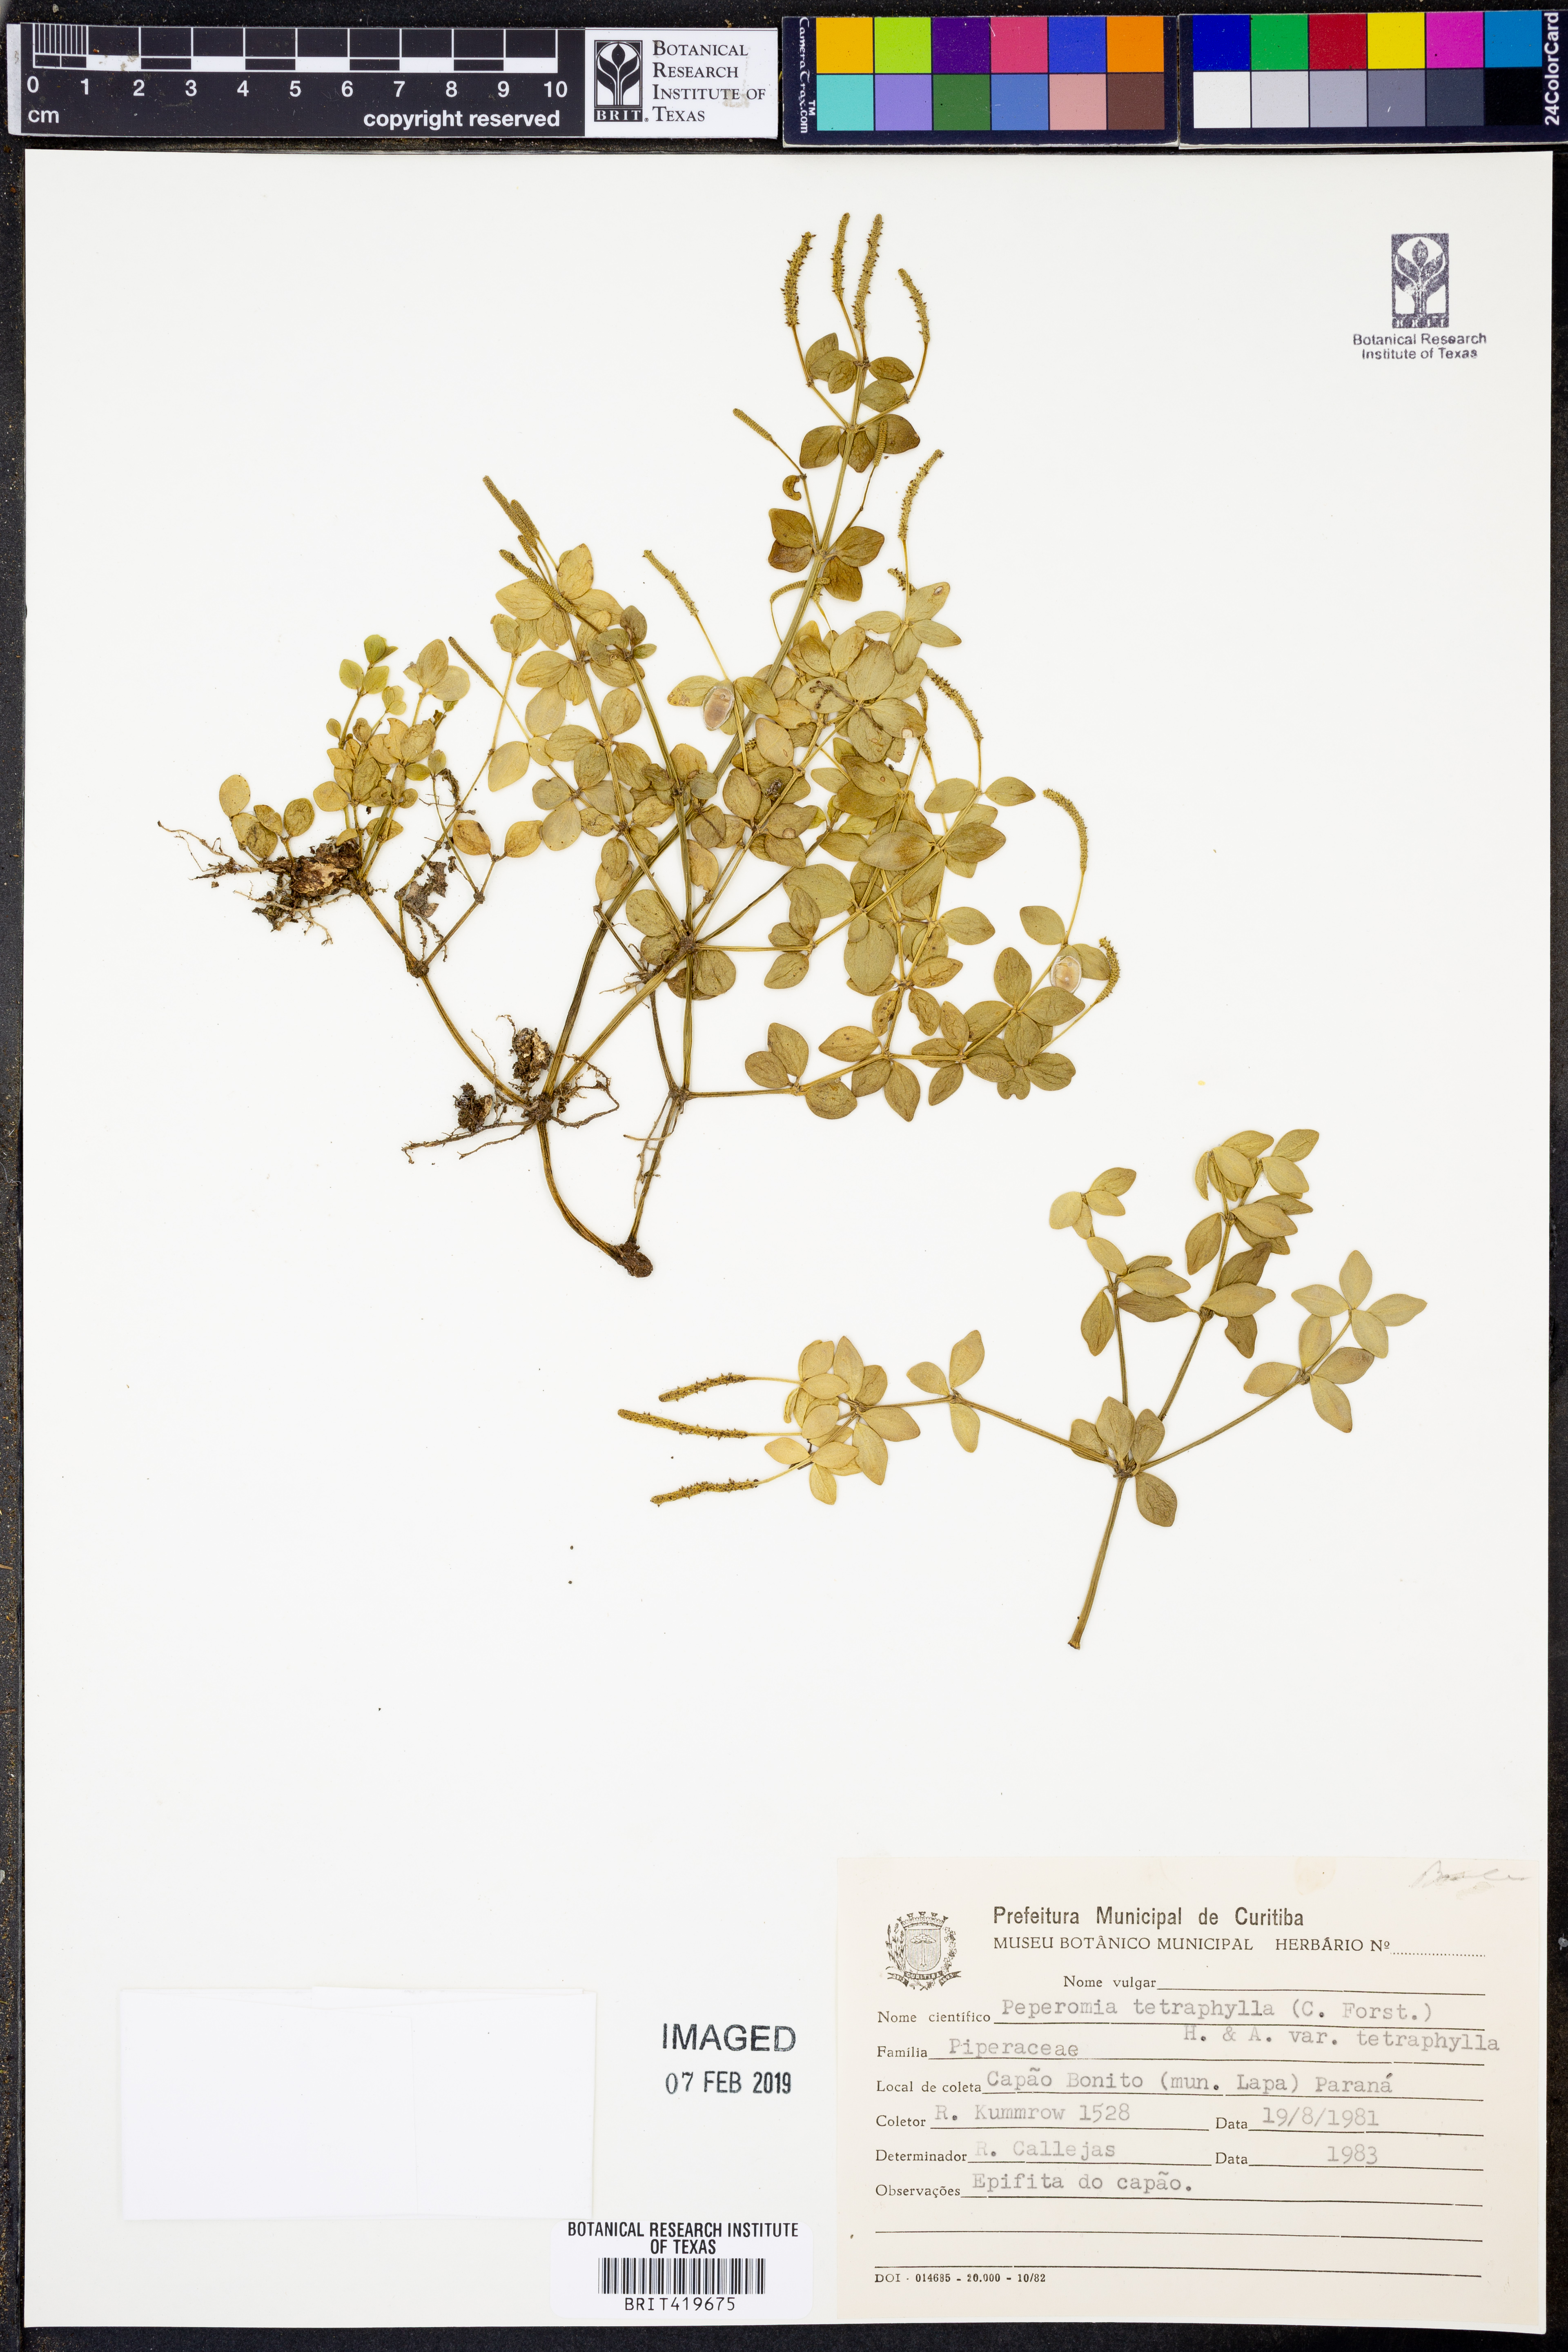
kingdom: Plantae
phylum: Tracheophyta
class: Magnoliopsida
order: Piperales
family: Piperaceae
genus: Peperomia
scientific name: Peperomia tetraphylla
